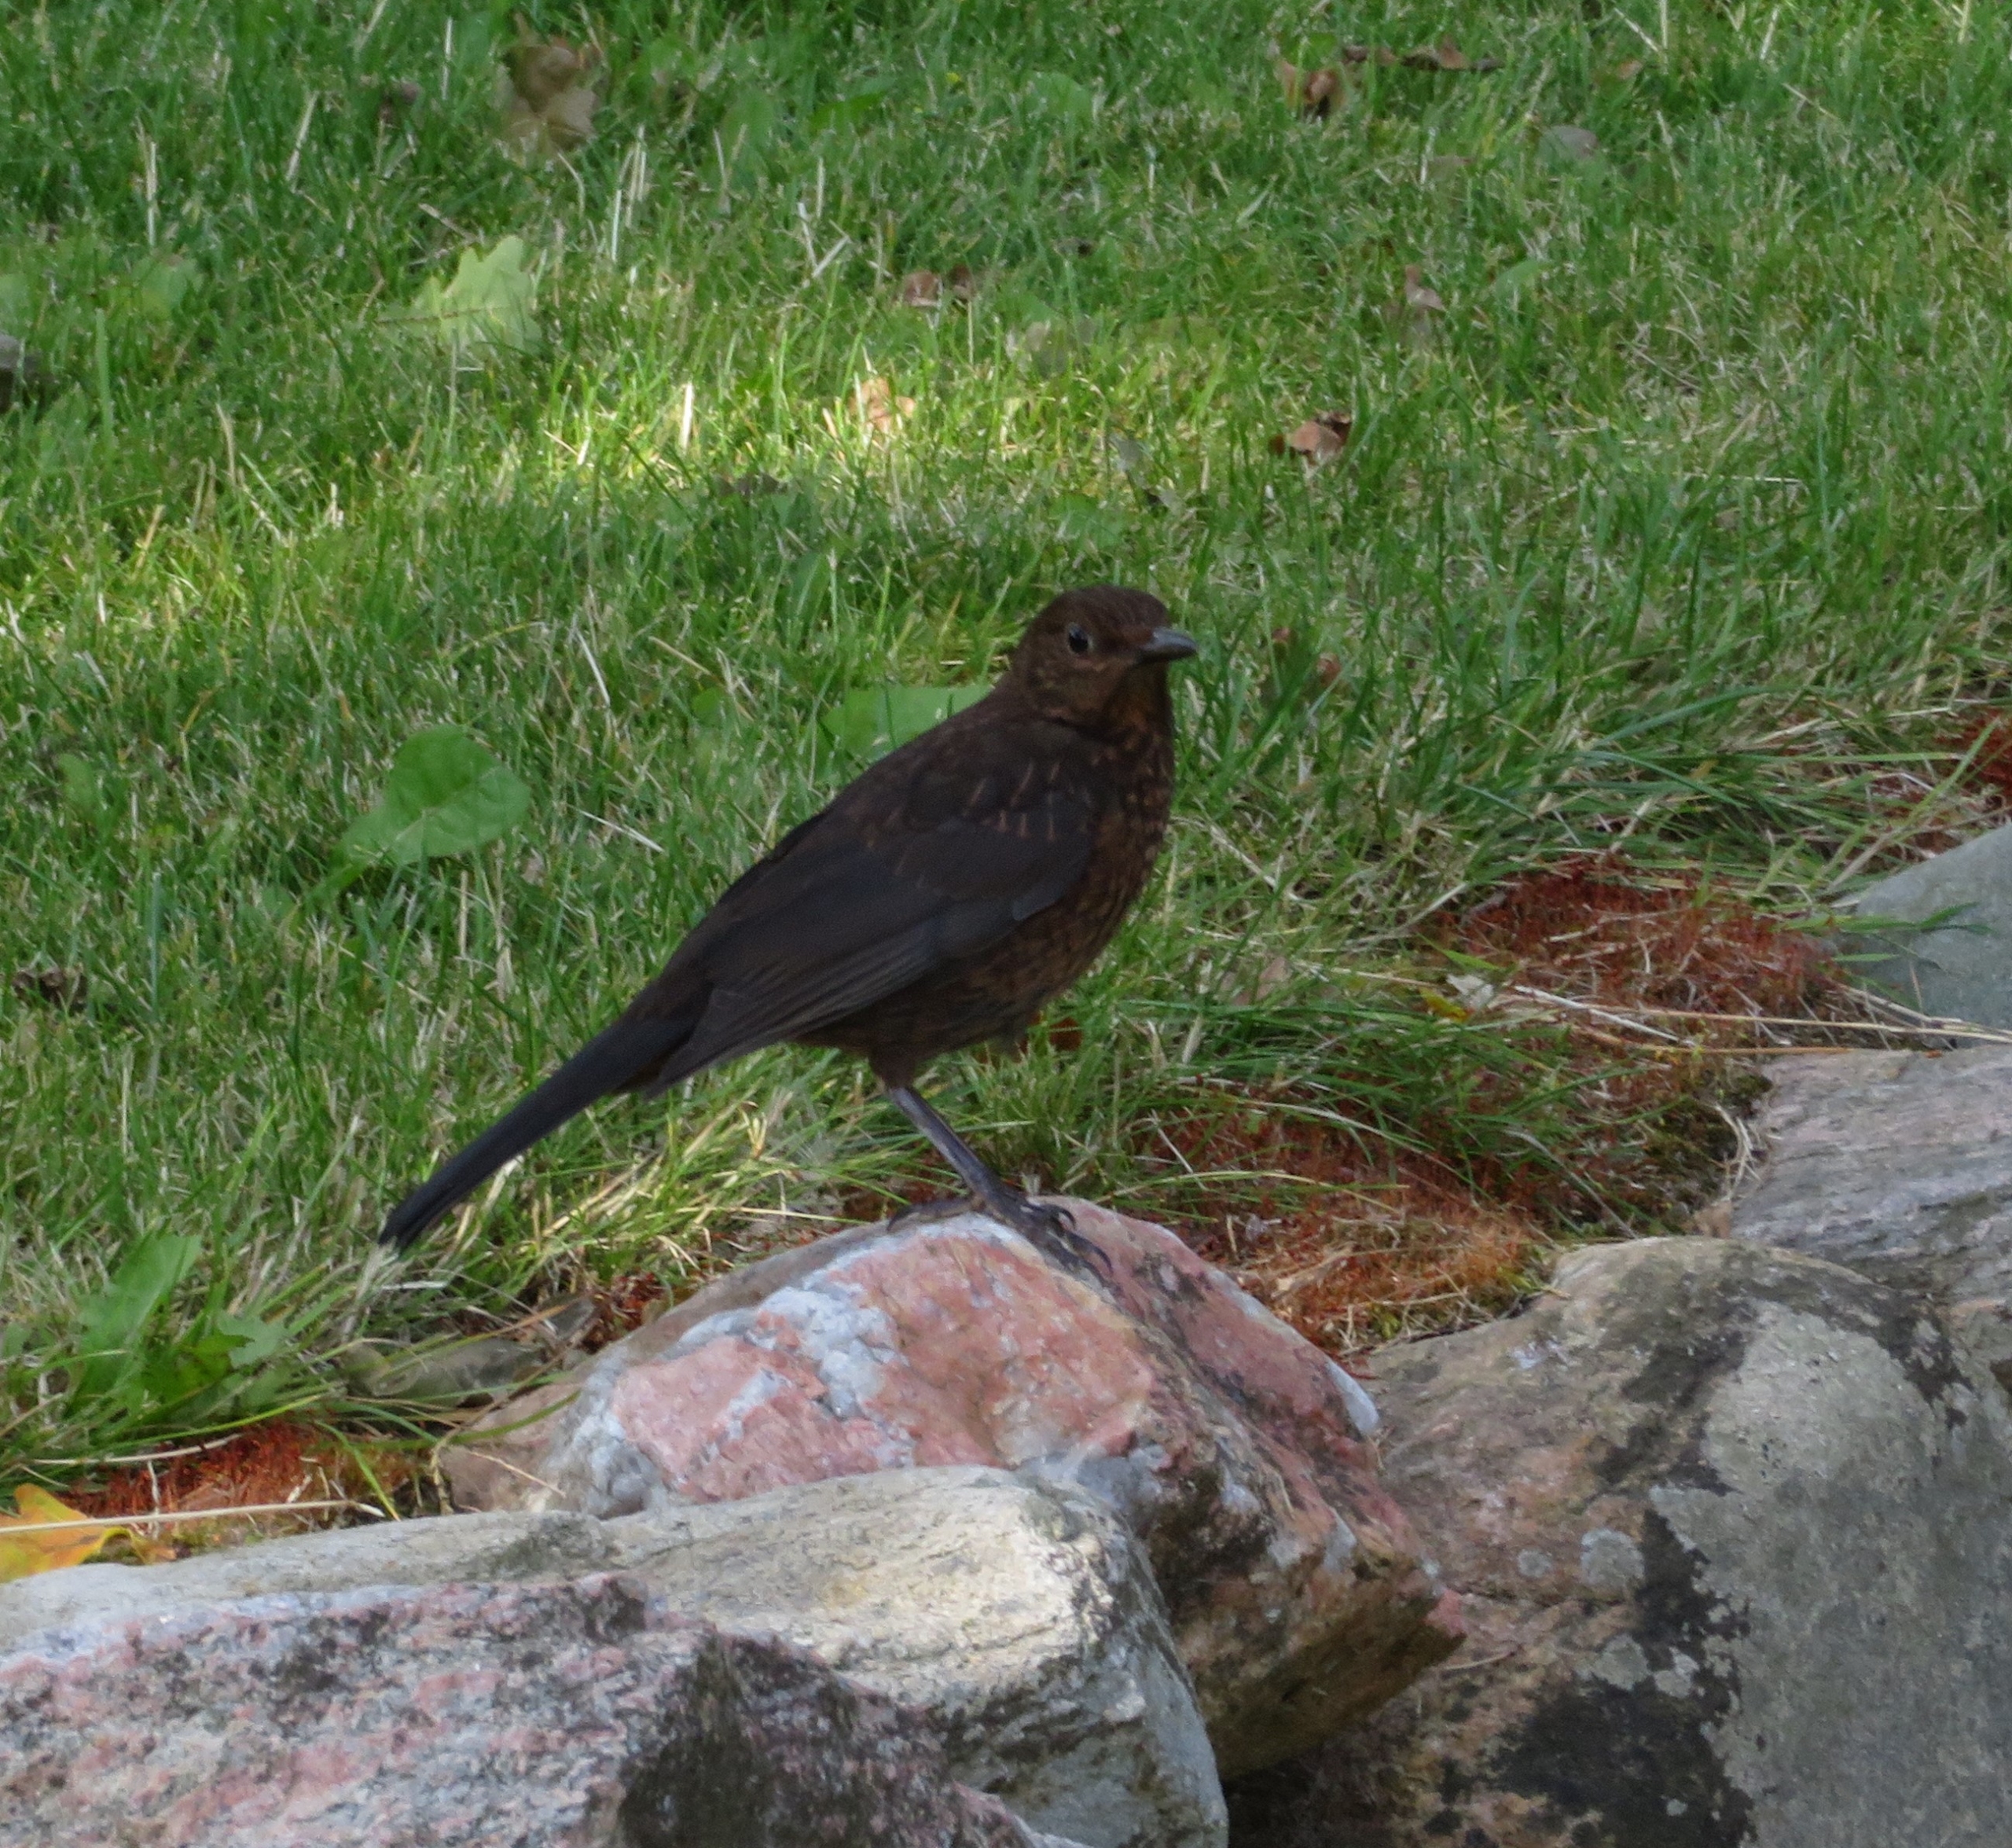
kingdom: Animalia
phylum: Chordata
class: Aves
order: Passeriformes
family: Turdidae
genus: Turdus
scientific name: Turdus merula
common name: Solsort
